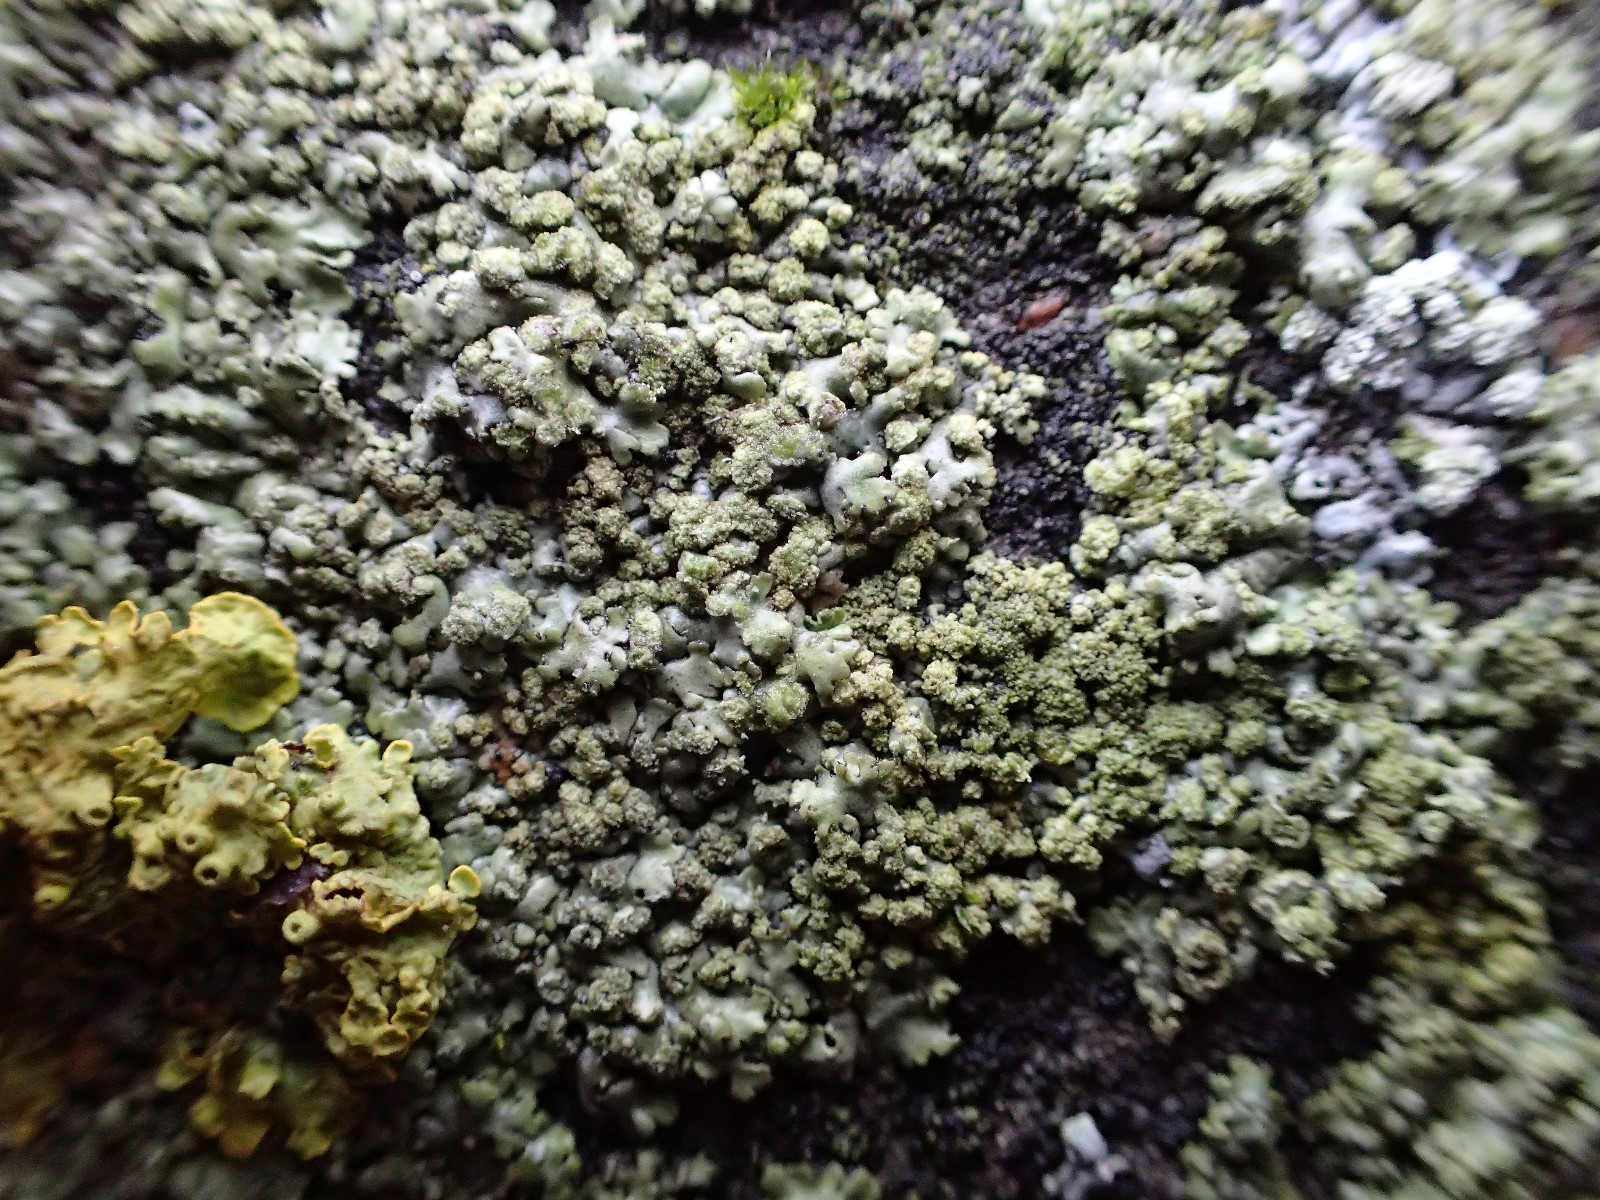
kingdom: Fungi
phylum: Ascomycota
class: Lecanoromycetes
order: Caliciales
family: Physciaceae
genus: Phaeophyscia
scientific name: Phaeophyscia orbicularis
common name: grågrøn rosetlav
